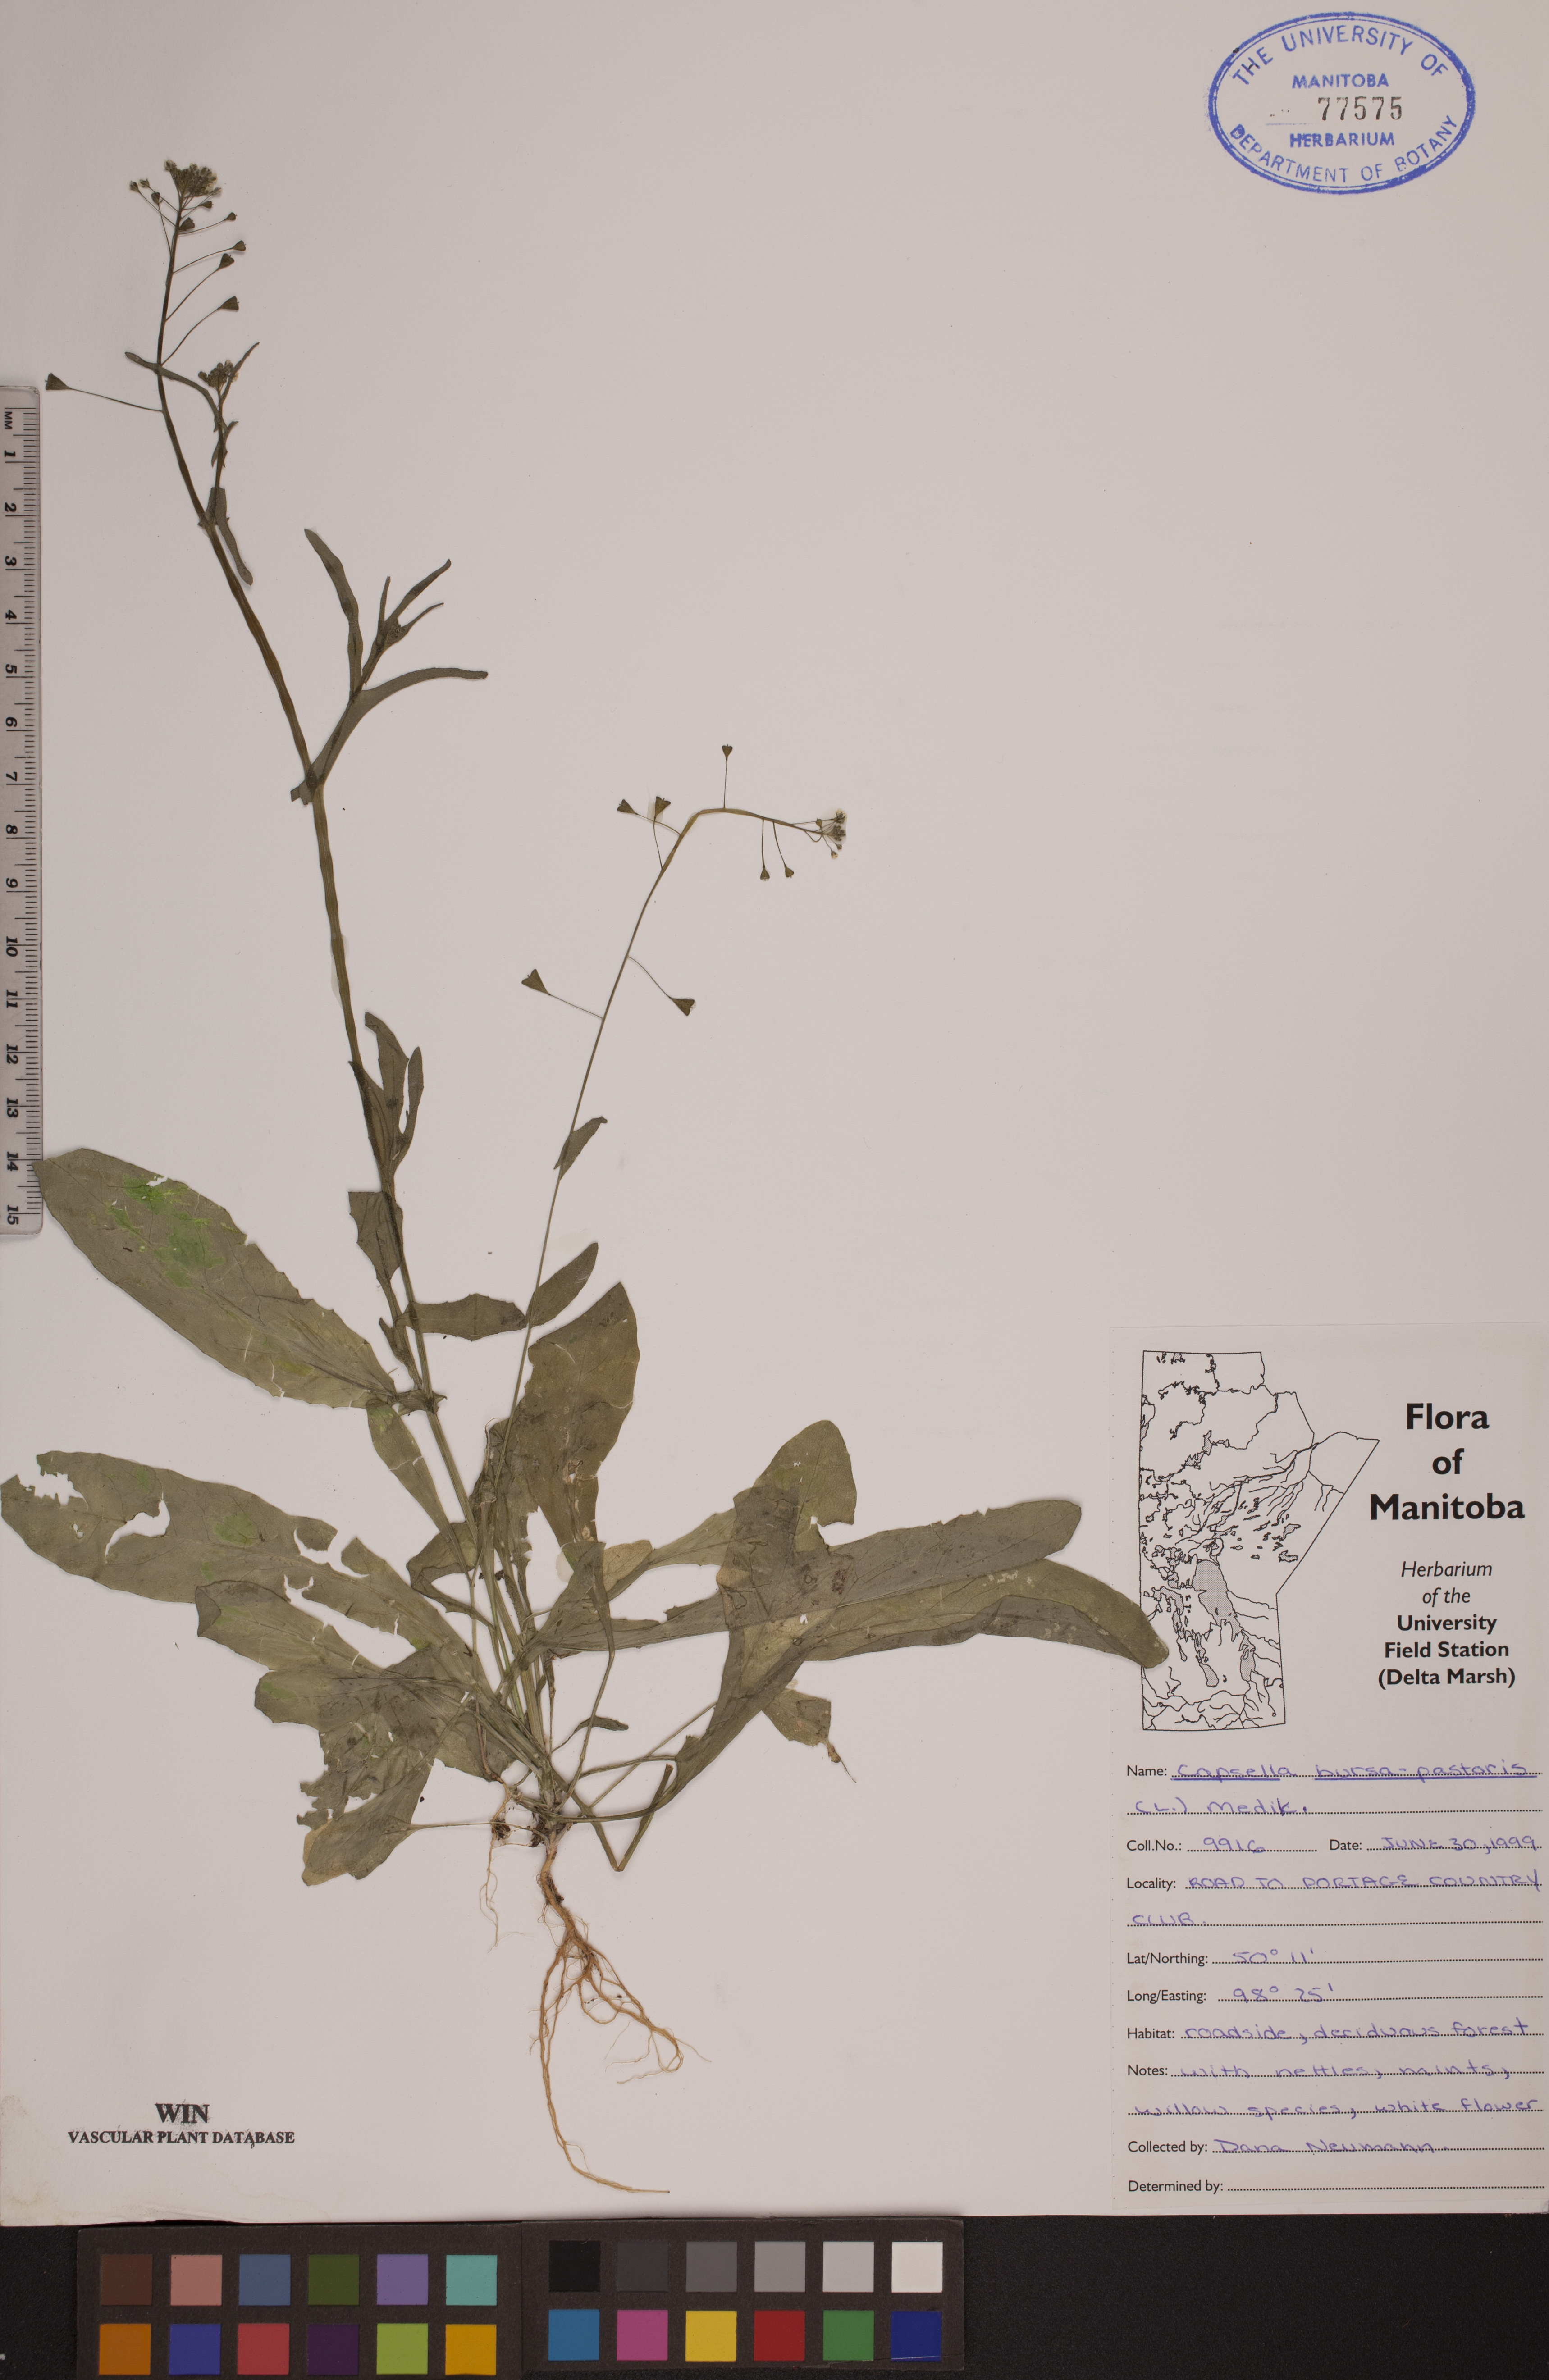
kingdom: Plantae
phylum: Tracheophyta
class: Magnoliopsida
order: Brassicales
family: Brassicaceae
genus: Capsella
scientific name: Capsella bursa-pastoris
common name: Shepherd's purse
